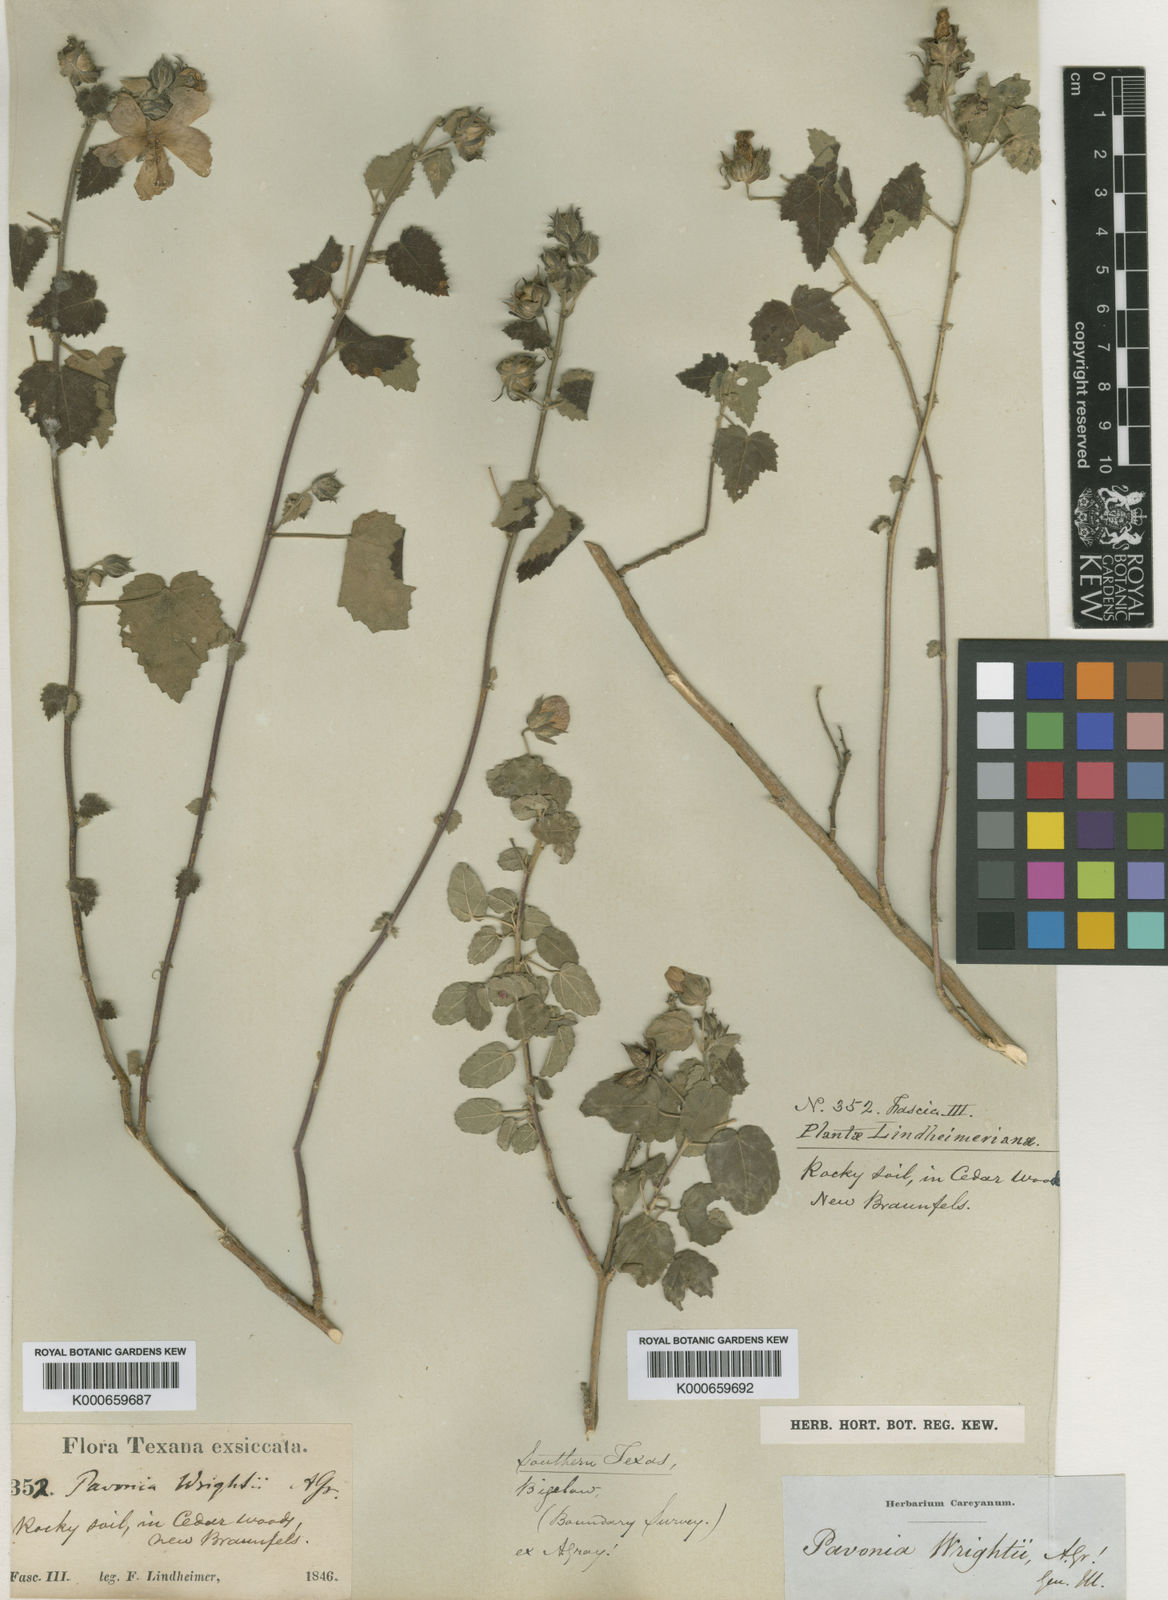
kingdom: Plantae
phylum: Tracheophyta
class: Magnoliopsida
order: Malvales
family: Malvaceae
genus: Pavonia
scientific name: Pavonia lasiopetala
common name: Texas swamp-mallow
